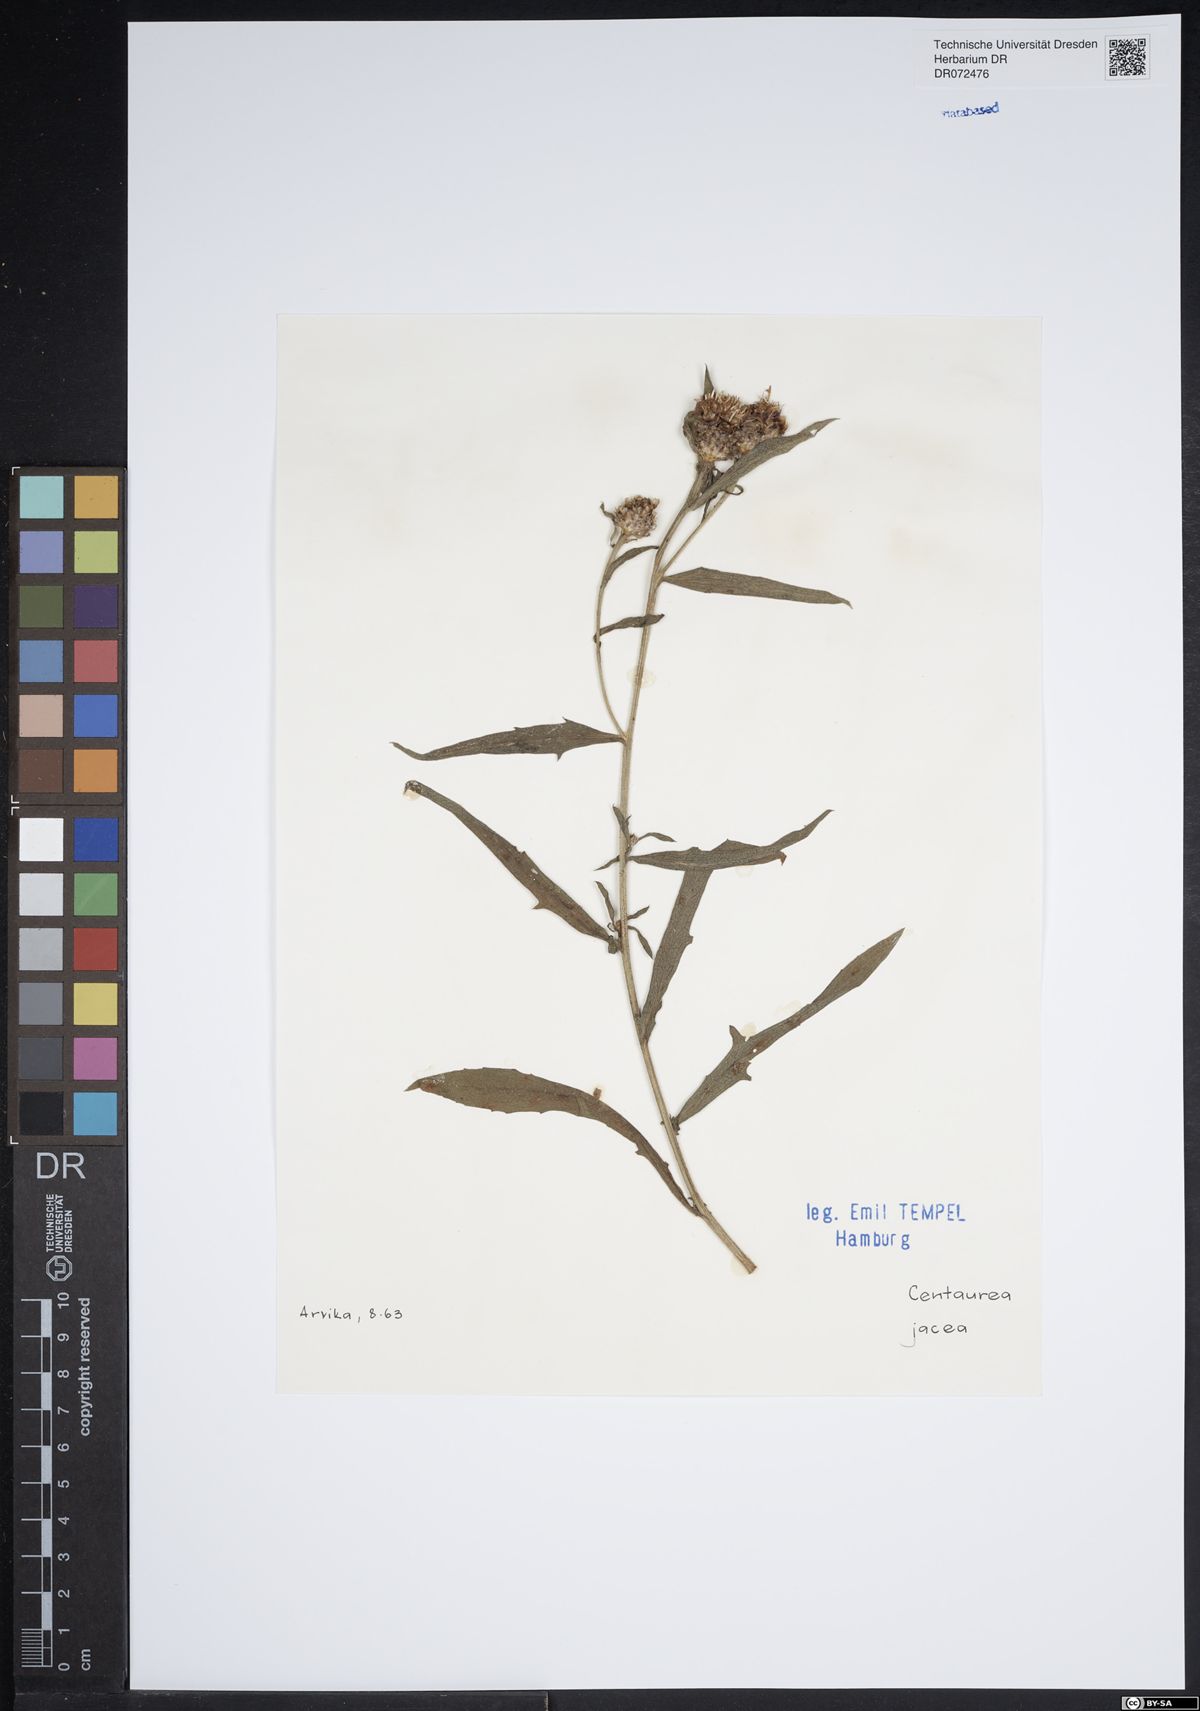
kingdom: Plantae
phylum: Tracheophyta
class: Magnoliopsida
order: Asterales
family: Asteraceae
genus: Centaurea
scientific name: Centaurea jacea
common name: Brown knapweed
